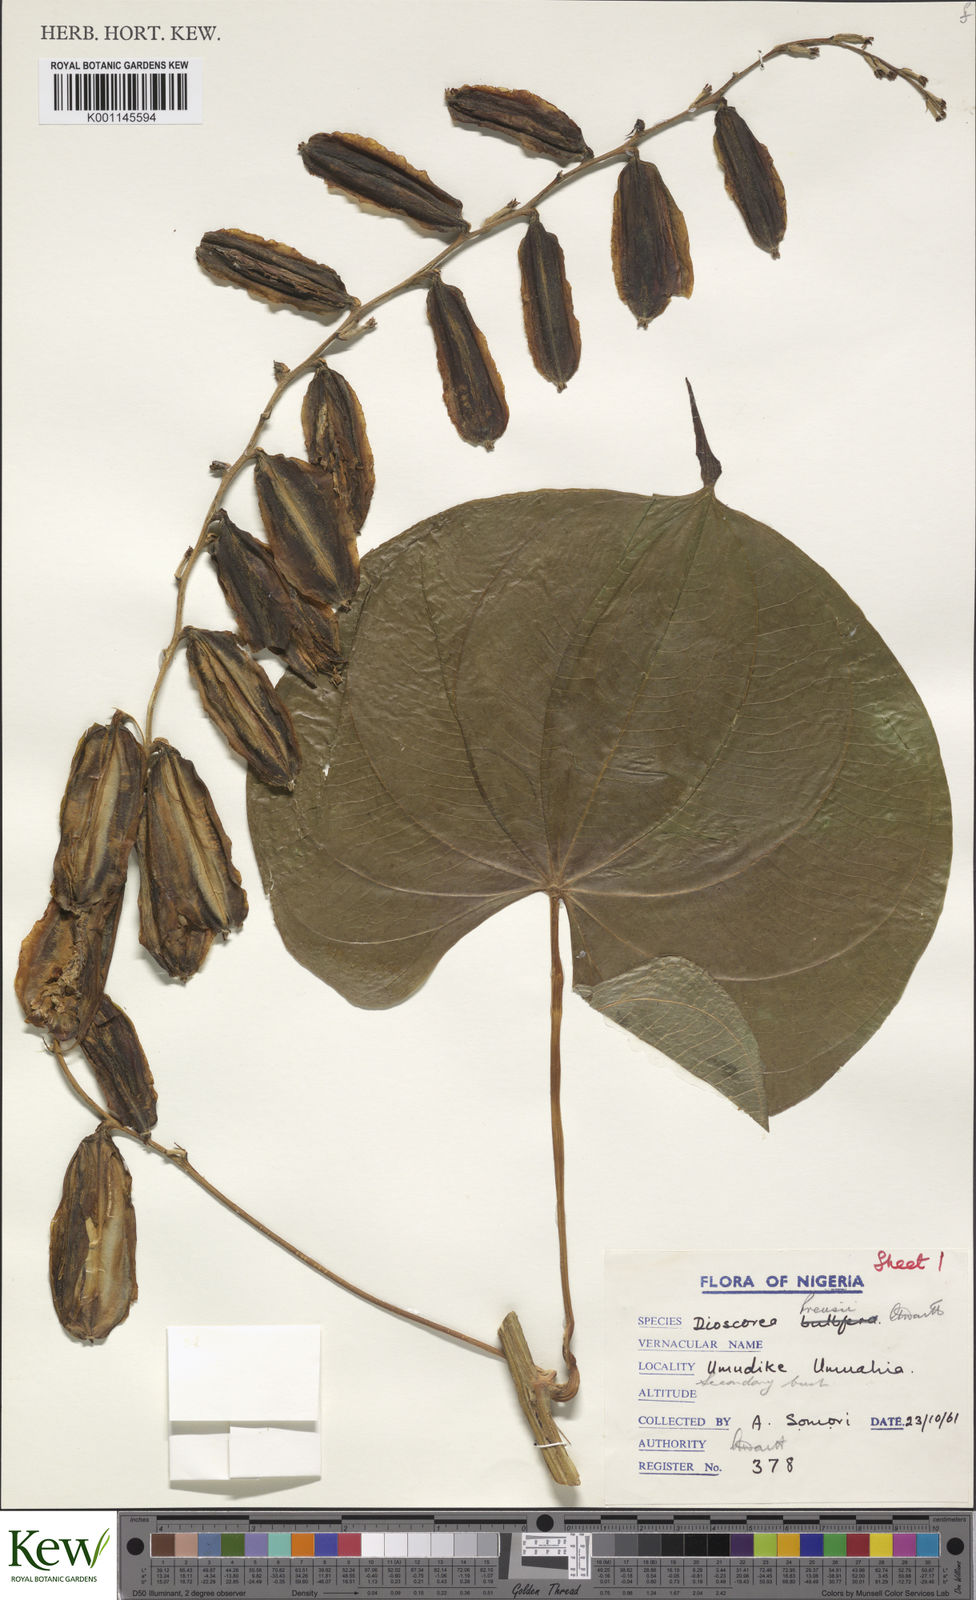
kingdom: Plantae
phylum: Tracheophyta
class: Liliopsida
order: Dioscoreales
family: Dioscoreaceae
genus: Dioscorea
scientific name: Dioscorea preussii
